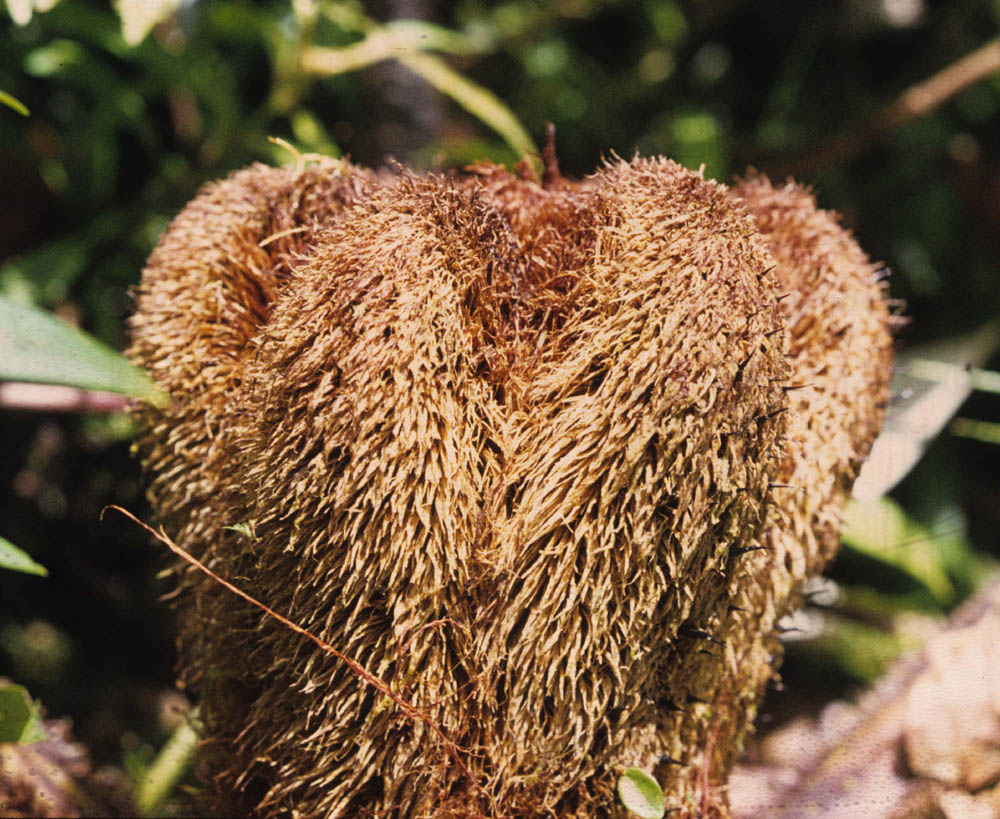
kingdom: Plantae
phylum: Tracheophyta
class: Polypodiopsida
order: Cyatheales
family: Cyatheaceae
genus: Alsophila
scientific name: Alsophila erinacea
